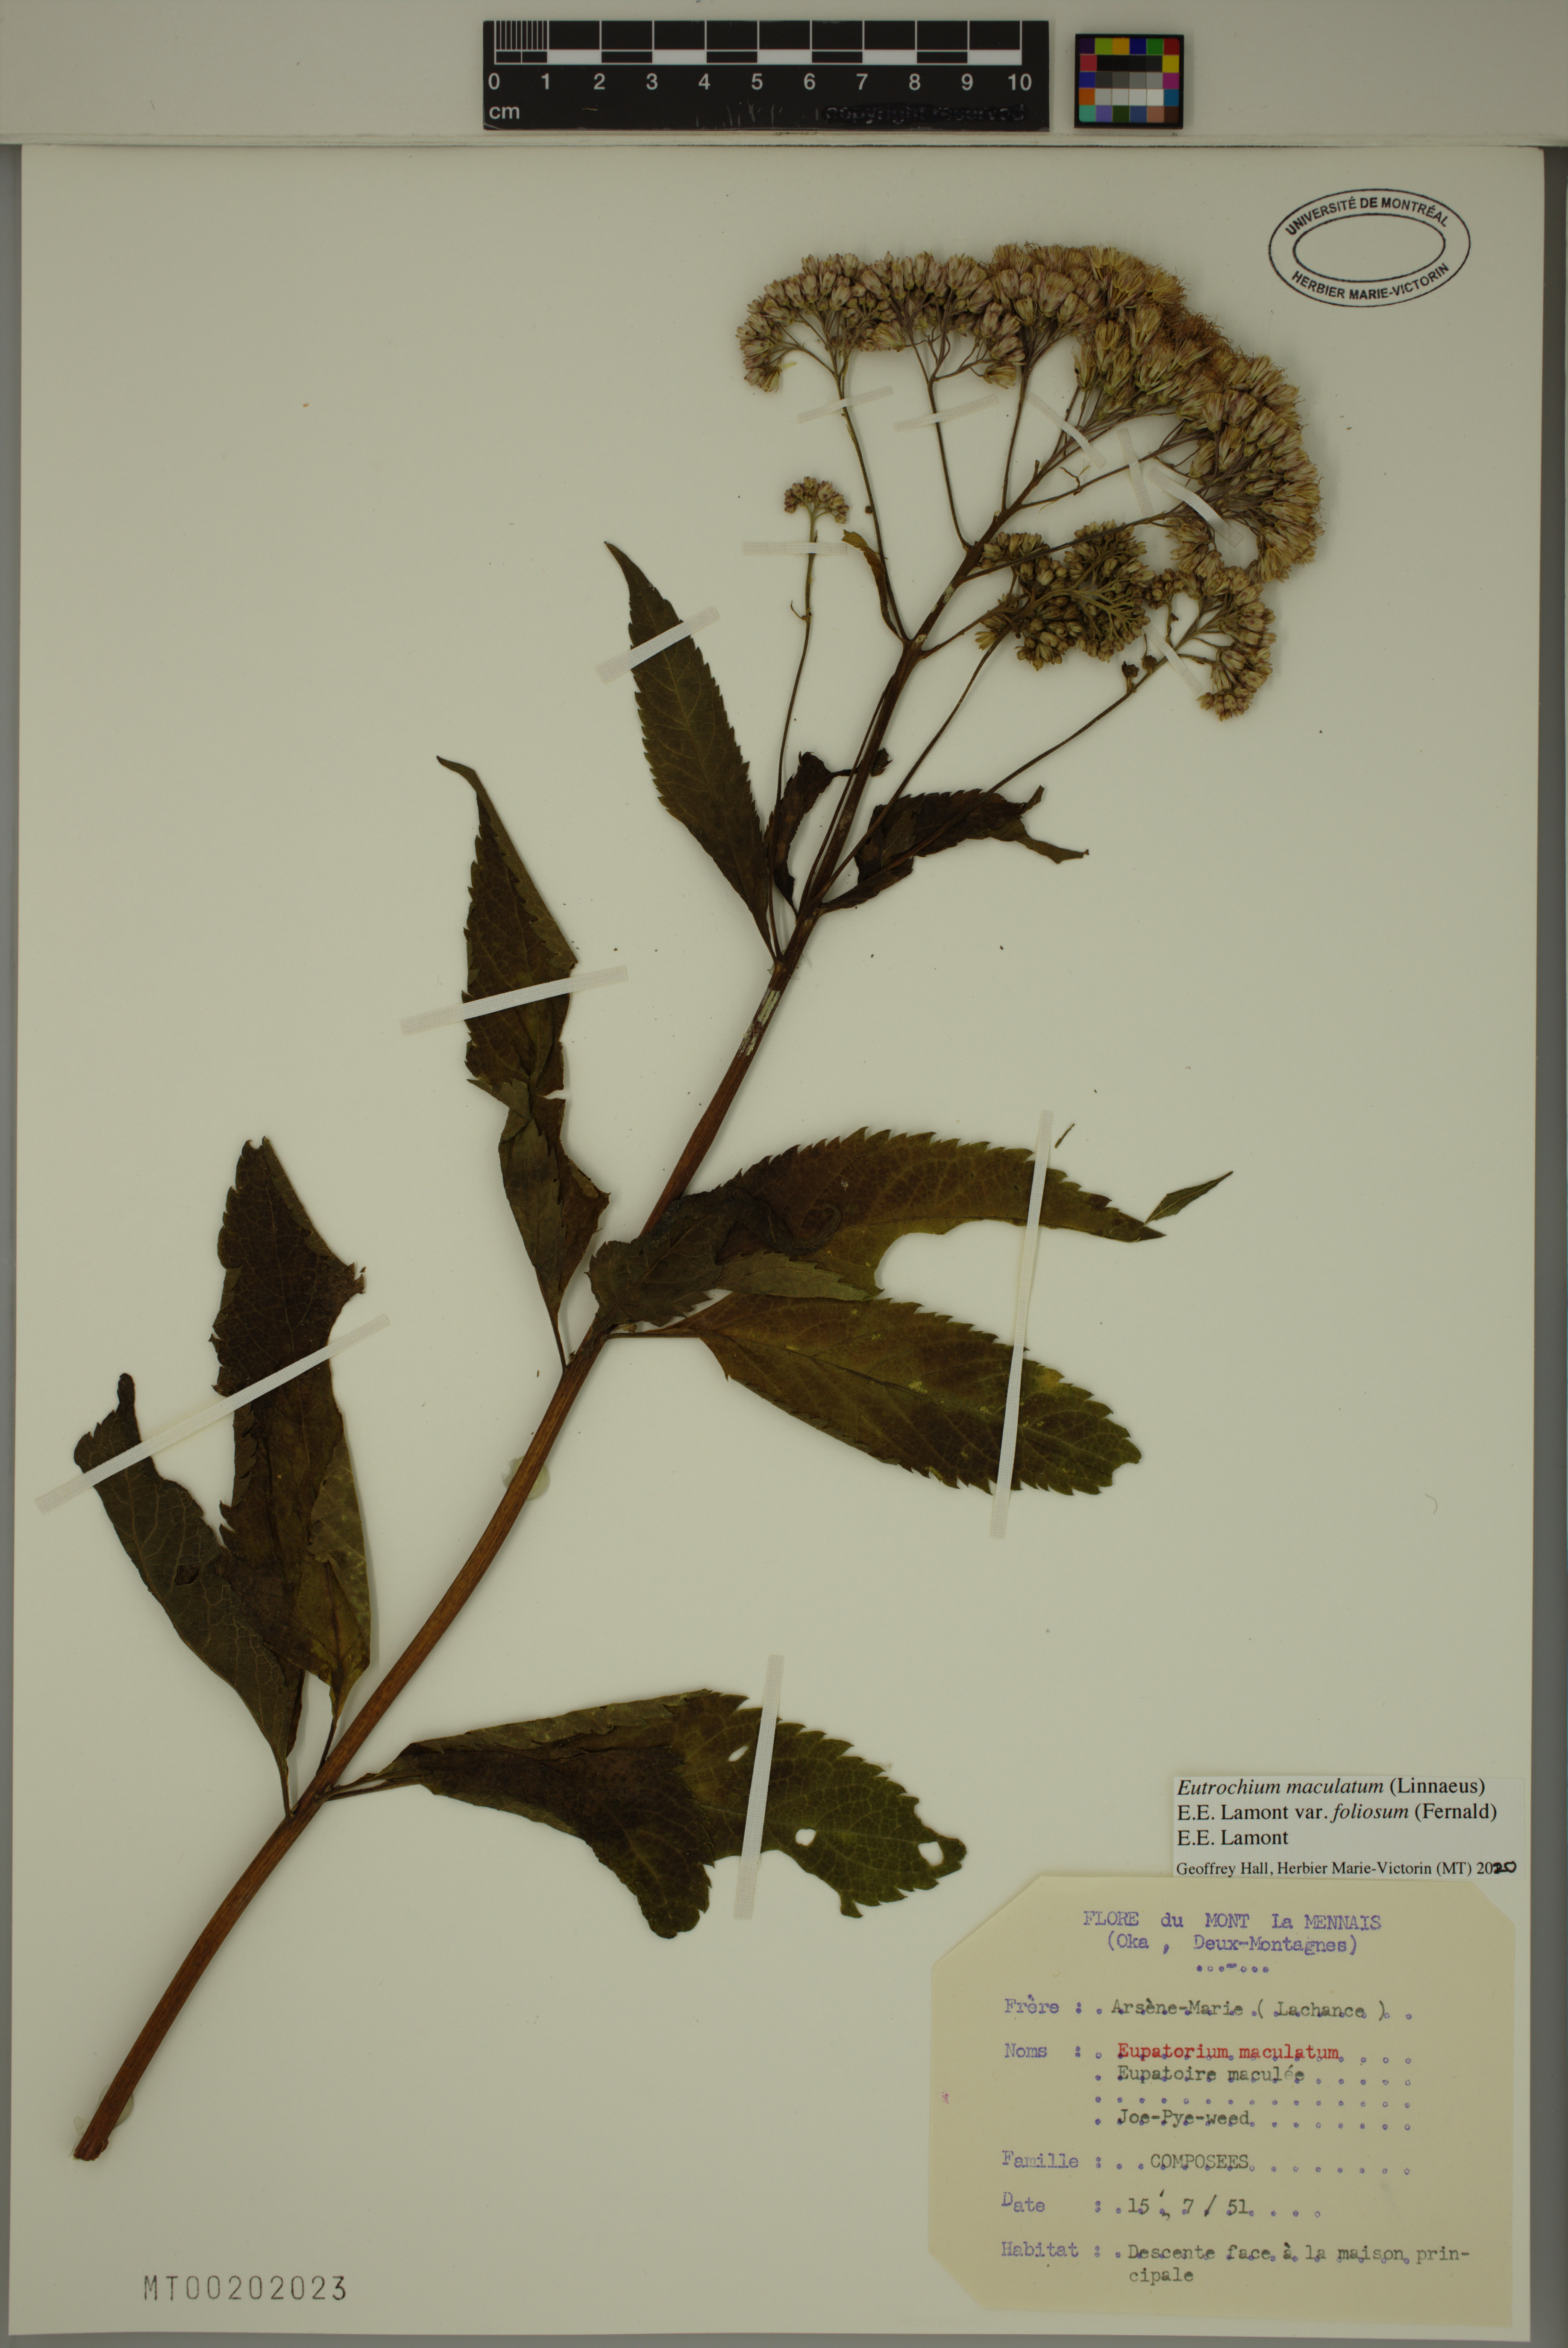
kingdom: Plantae
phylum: Tracheophyta
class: Magnoliopsida
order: Asterales
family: Asteraceae
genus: Eutrochium
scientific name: Eutrochium maculatum
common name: Spotted joe pye weed
